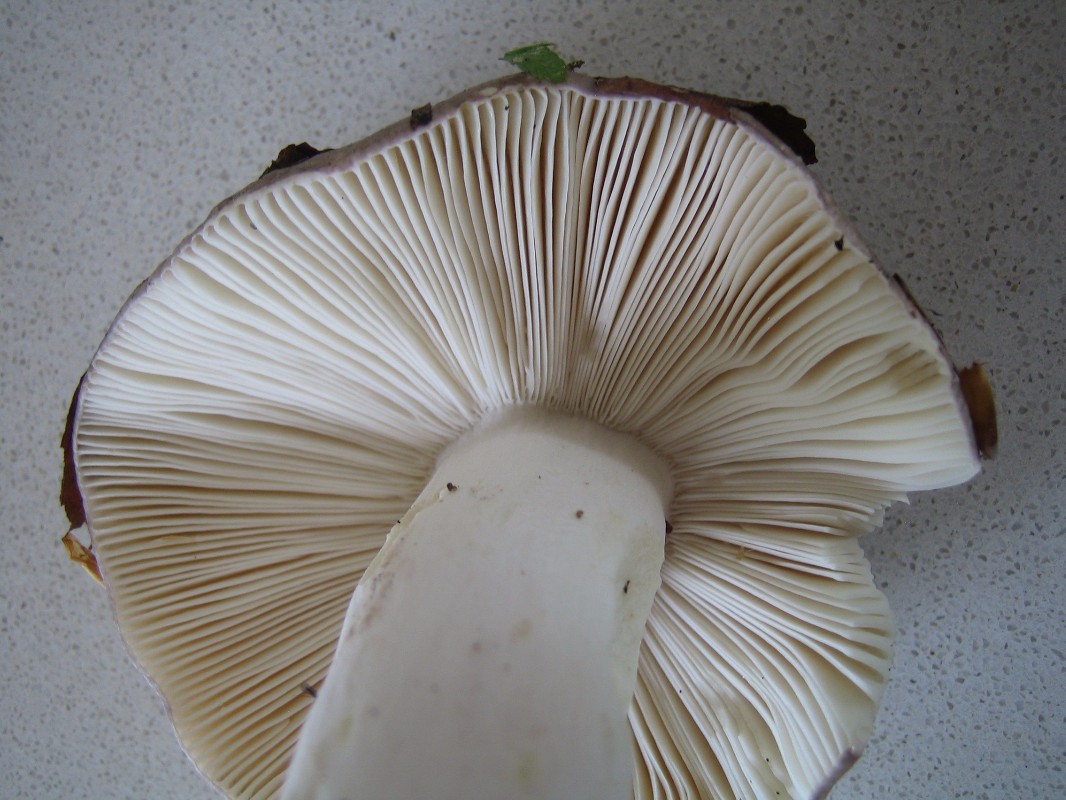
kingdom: Fungi
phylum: Basidiomycota
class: Agaricomycetes
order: Russulales
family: Russulaceae
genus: Russula
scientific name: Russula cyanoxantha
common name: broget skørhat
